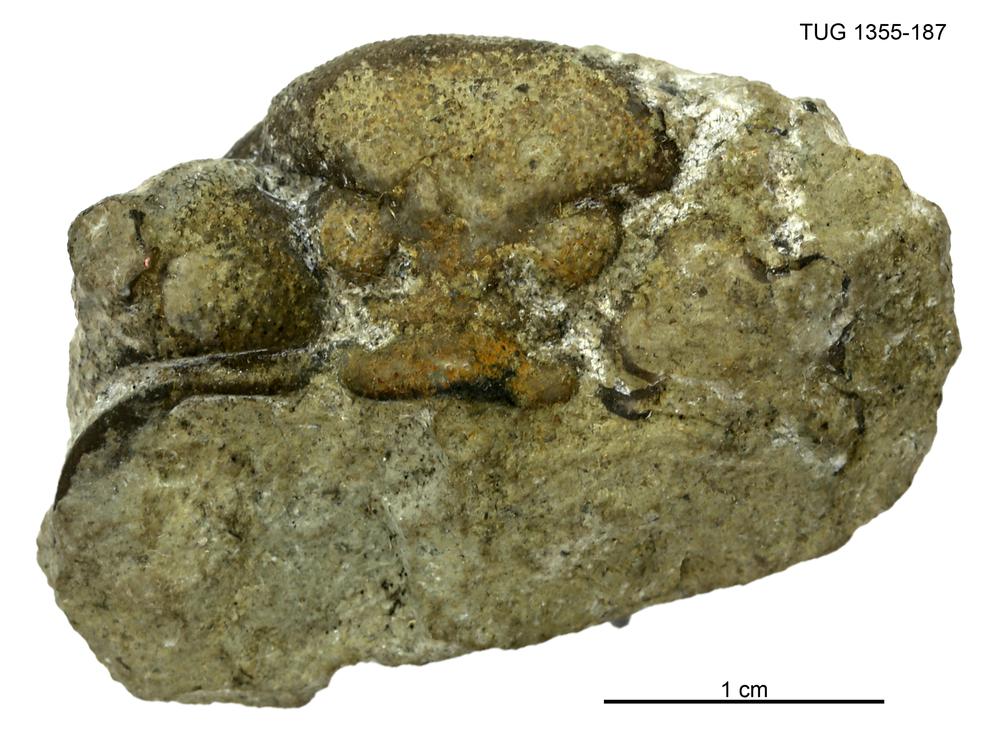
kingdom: Animalia
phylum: Arthropoda
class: Trilobita
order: Phacopida
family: Phacopidae
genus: Phacops
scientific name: Phacops
